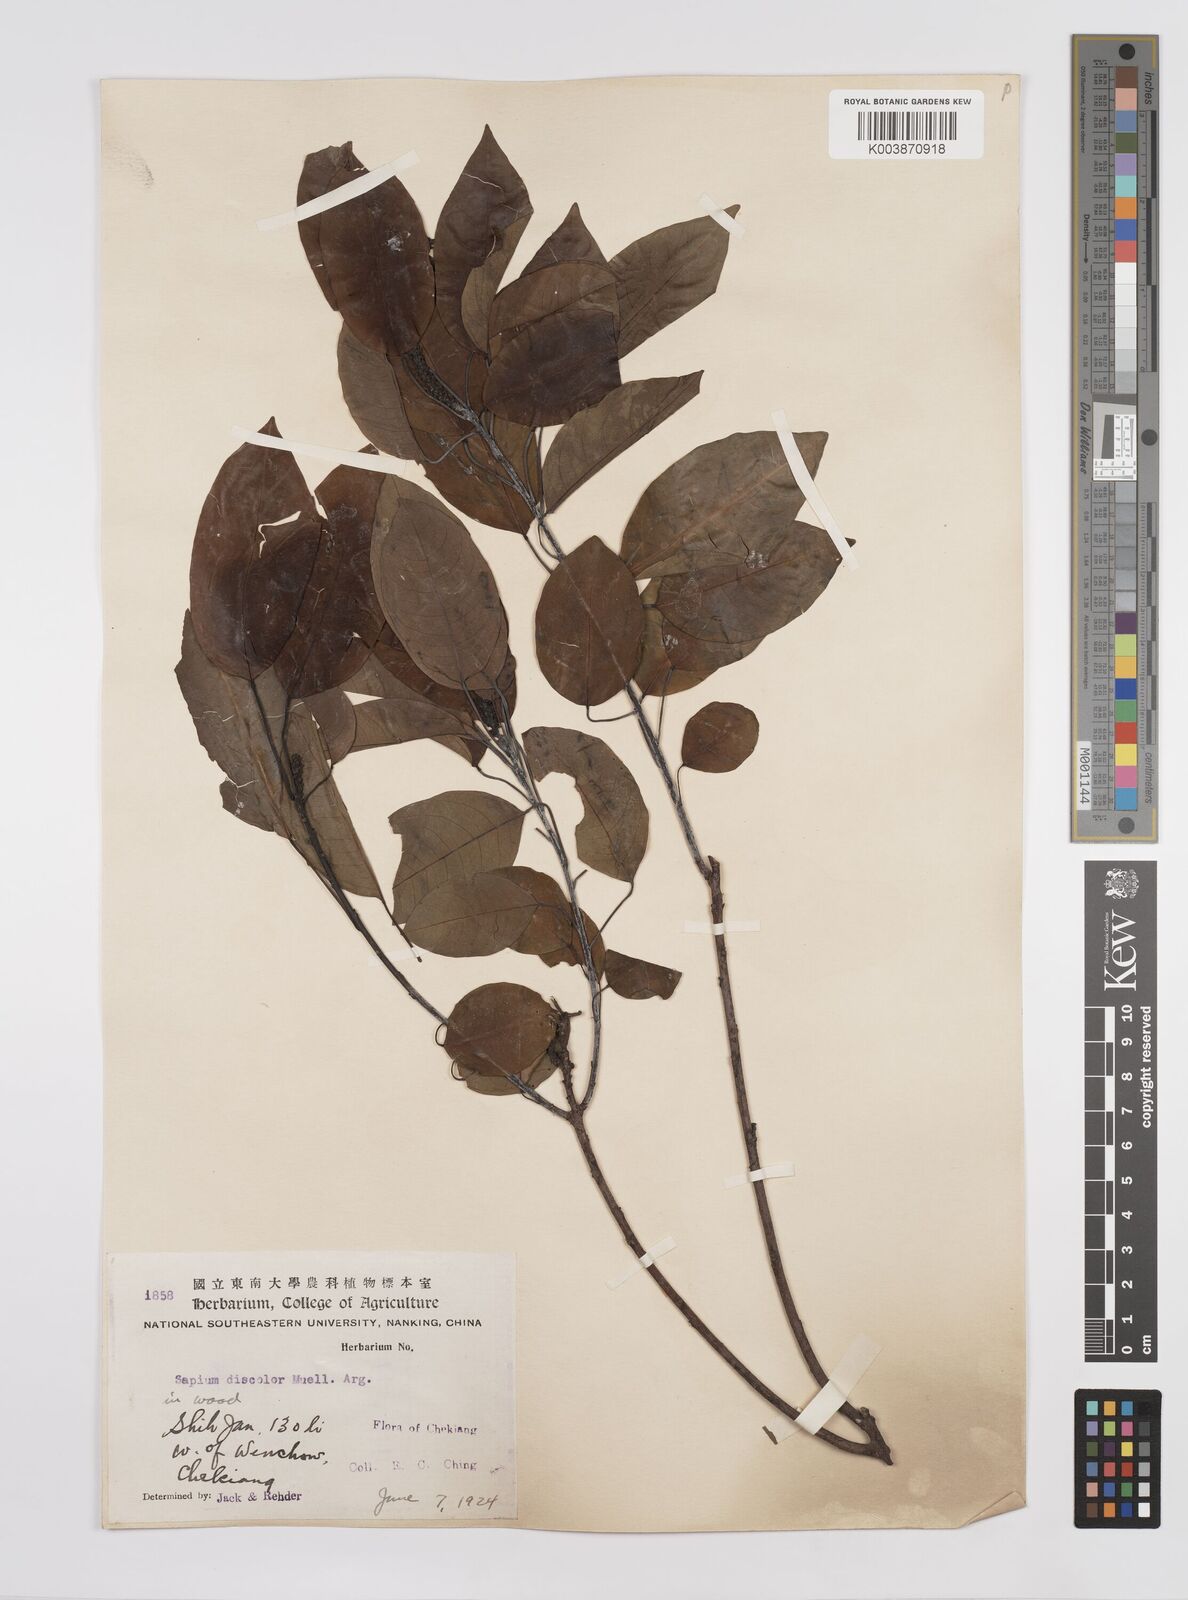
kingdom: Plantae
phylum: Tracheophyta
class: Magnoliopsida
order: Malpighiales
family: Euphorbiaceae
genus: Triadica
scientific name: Triadica cochinchinensis
